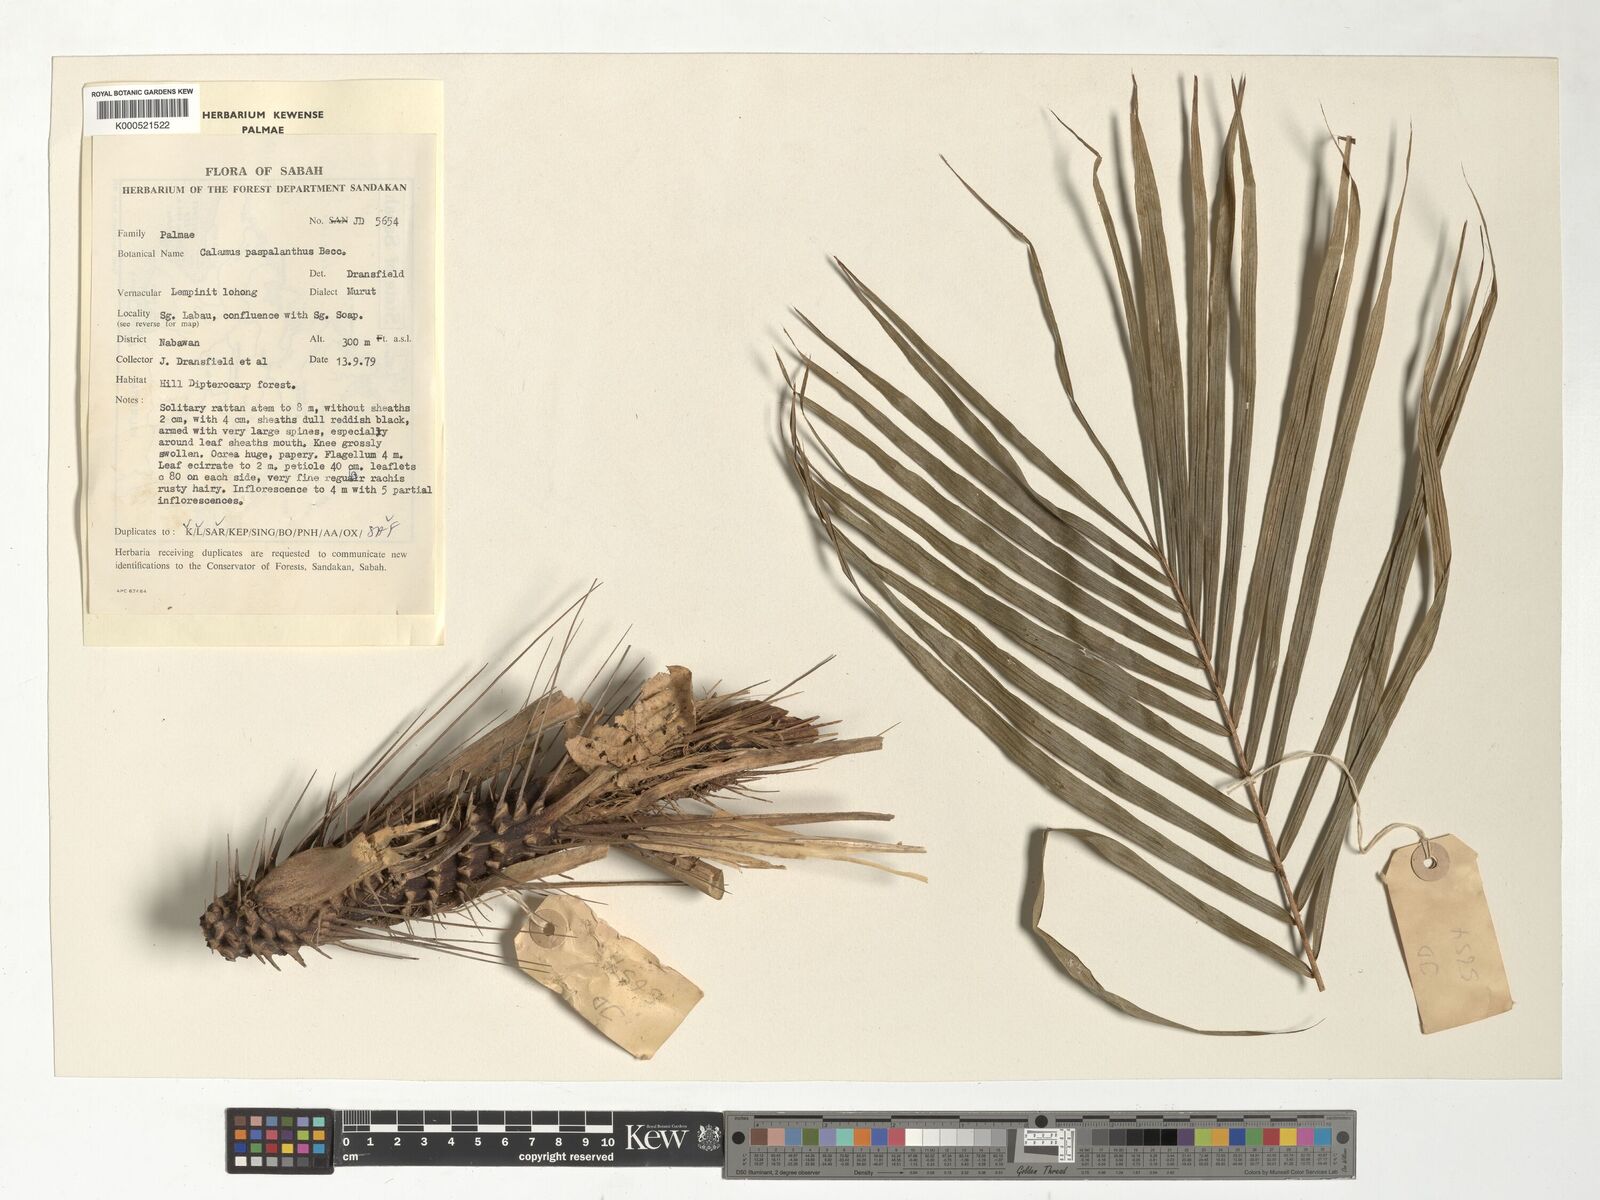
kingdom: Plantae
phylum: Tracheophyta
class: Liliopsida
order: Arecales
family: Arecaceae
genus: Calamus
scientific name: Calamus paspalanthus
